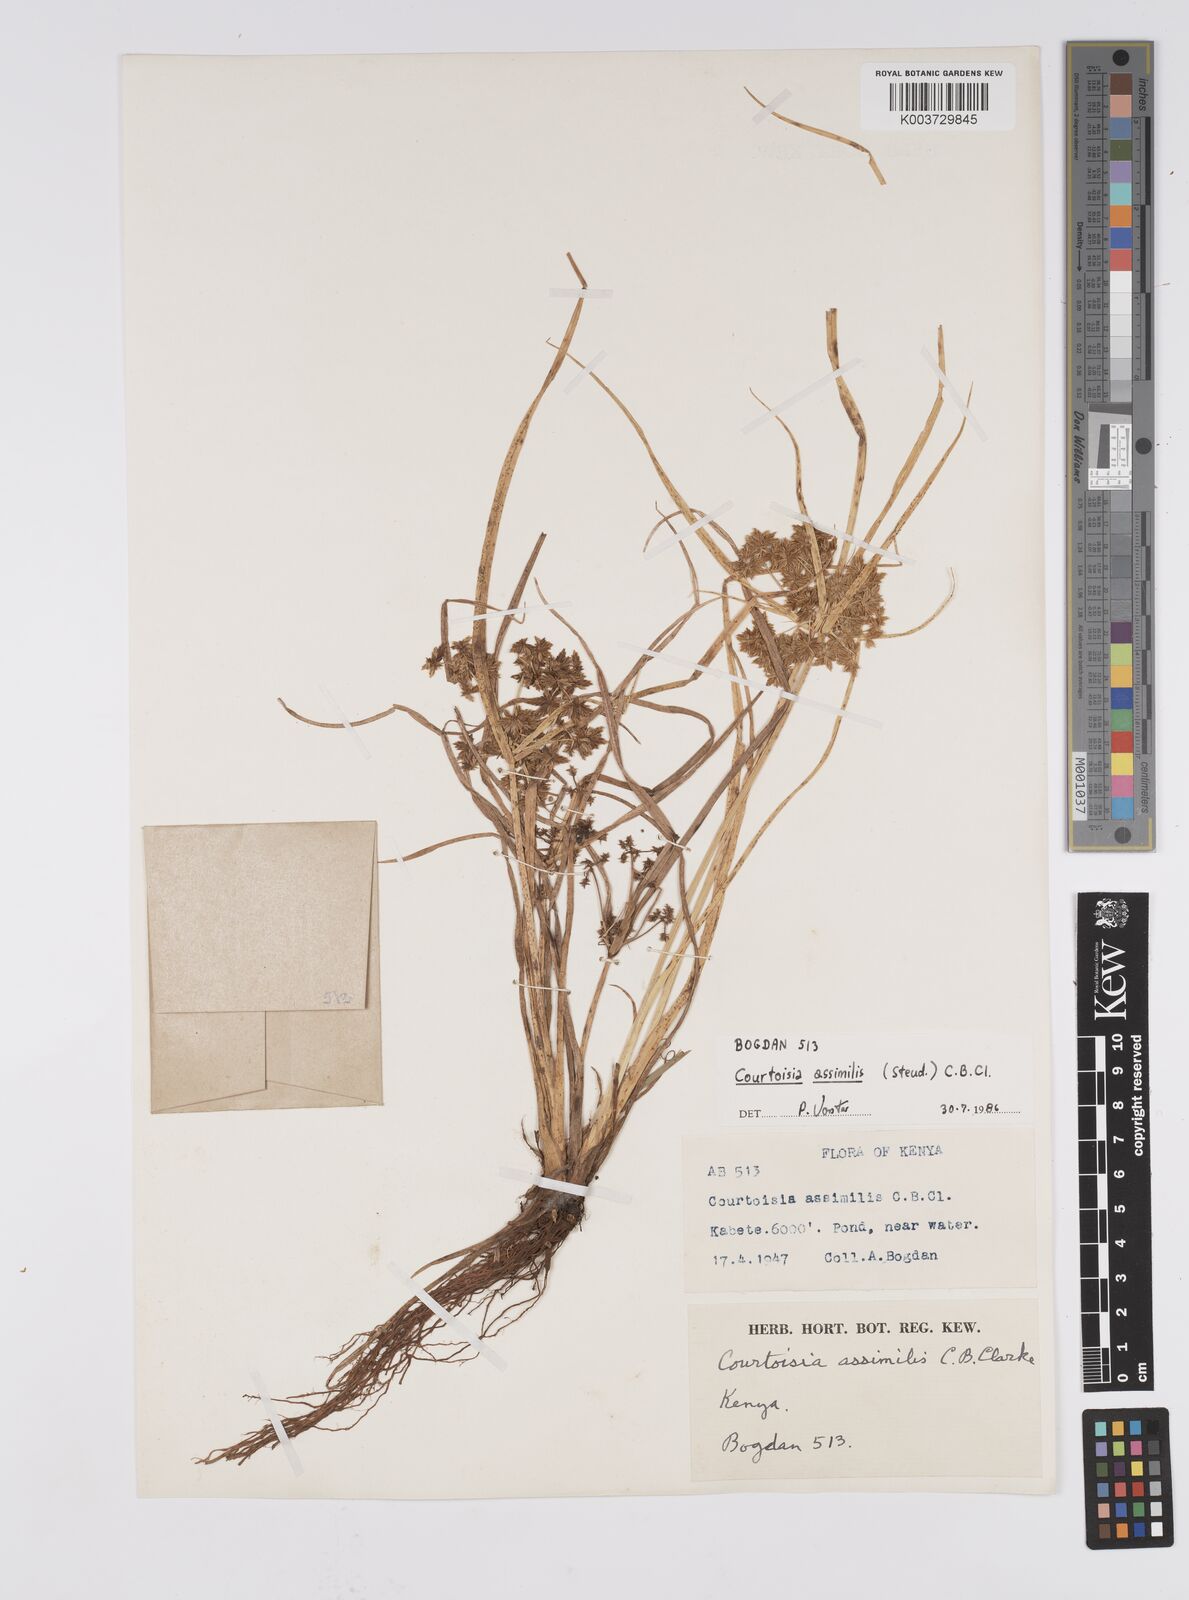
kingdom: Plantae
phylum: Tracheophyta
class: Liliopsida
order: Poales
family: Cyperaceae
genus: Cyperus
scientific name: Cyperus assimilis
